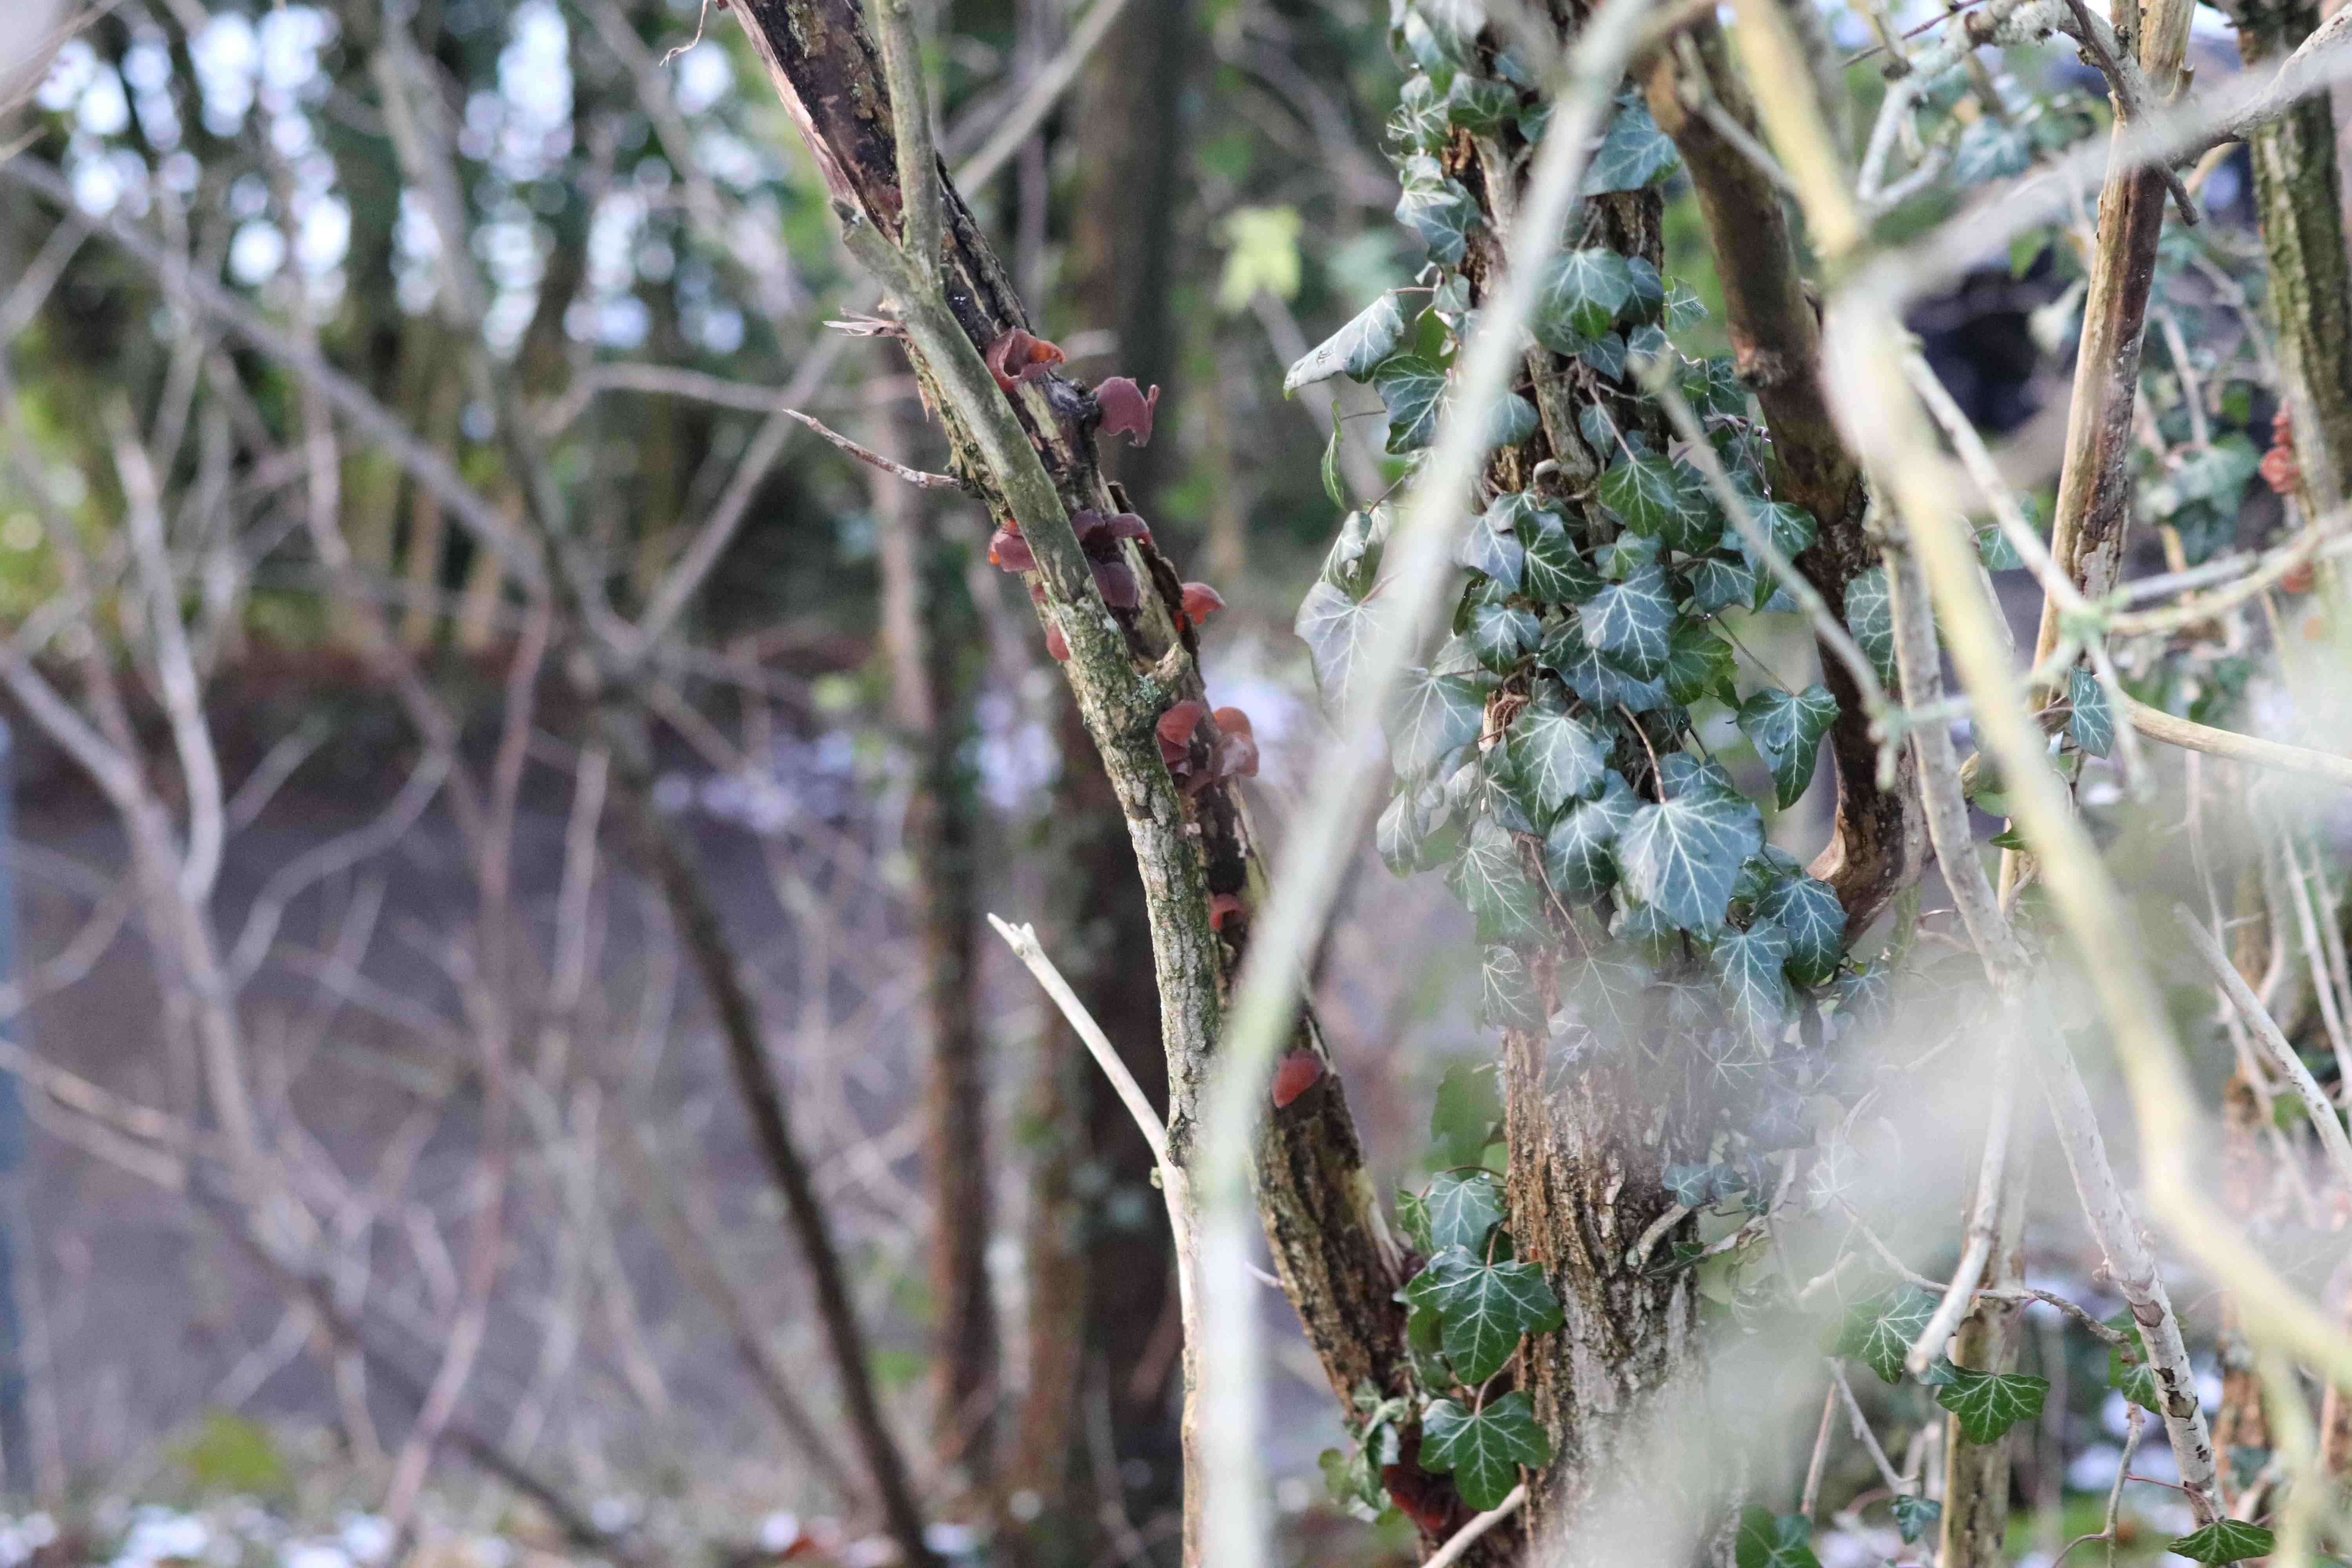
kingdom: Fungi
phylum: Basidiomycota
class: Agaricomycetes
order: Auriculariales
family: Auriculariaceae
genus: Auricularia
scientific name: Auricularia auricula-judae
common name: almindelig judasøre
